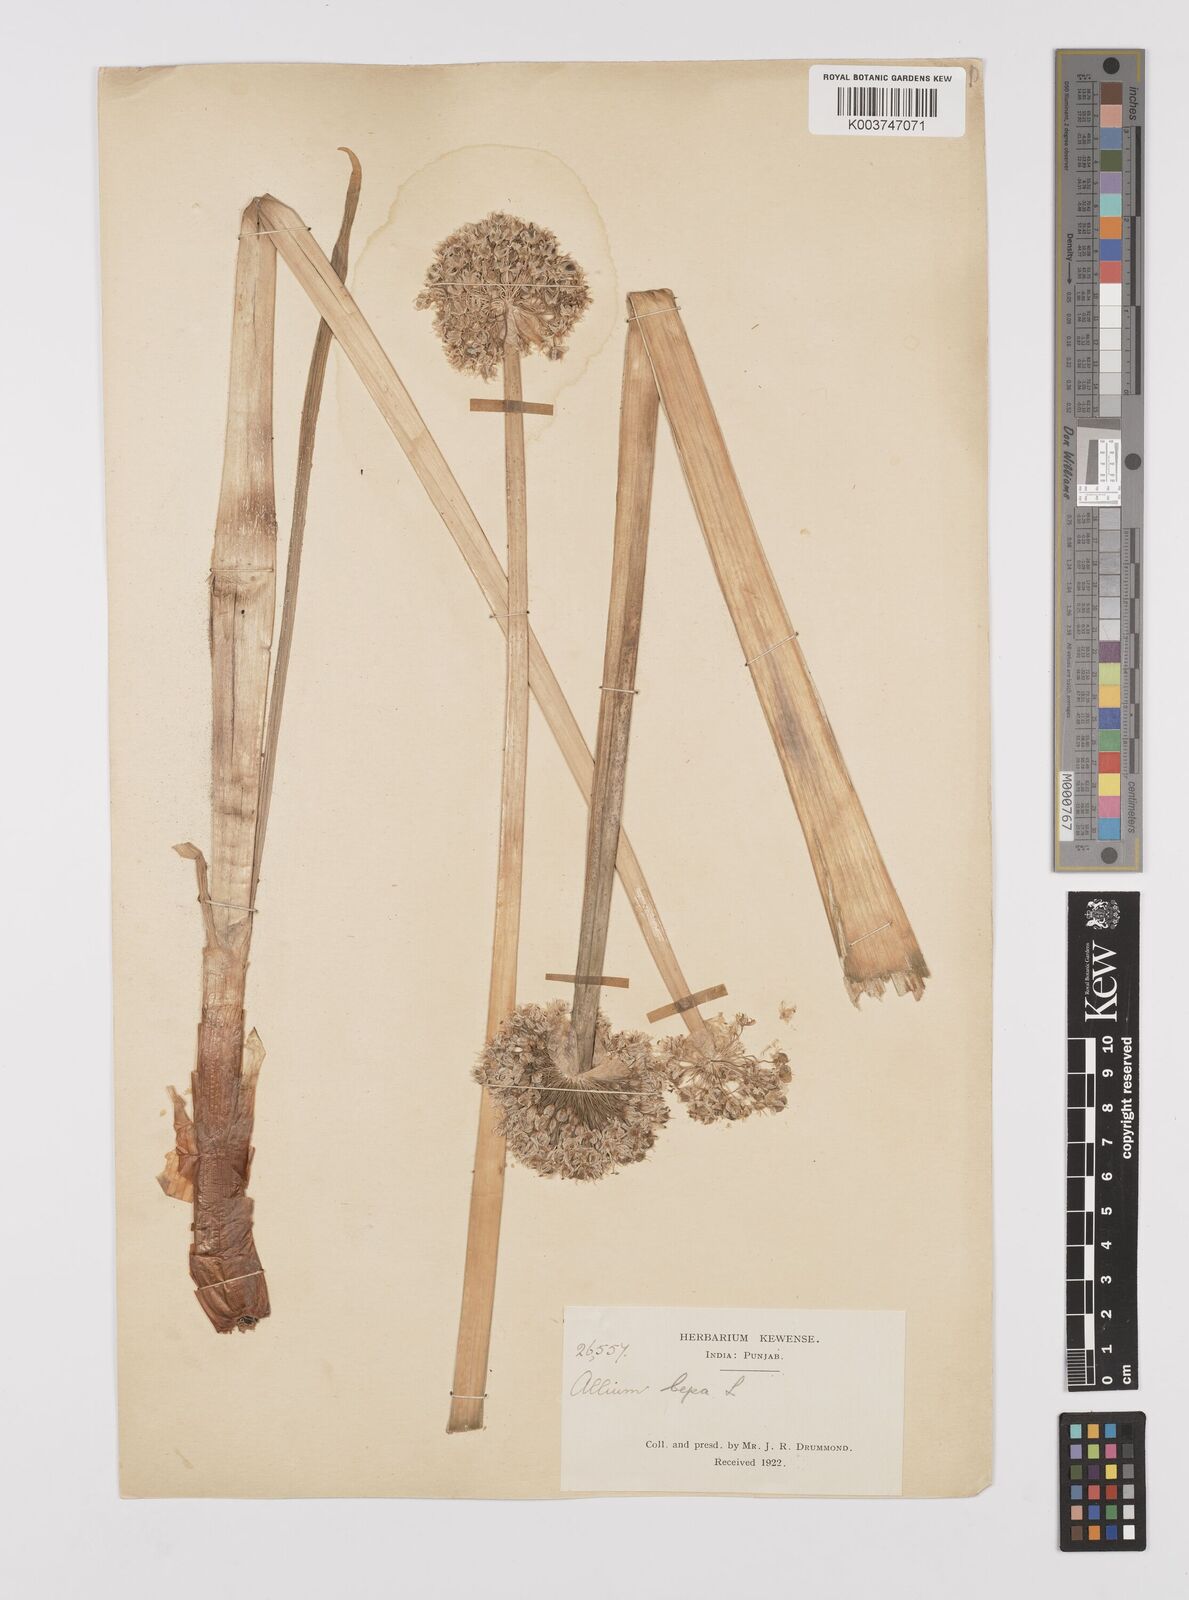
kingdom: Plantae
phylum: Tracheophyta
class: Liliopsida
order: Asparagales
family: Amaryllidaceae
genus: Allium
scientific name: Allium cepa
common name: Onion
